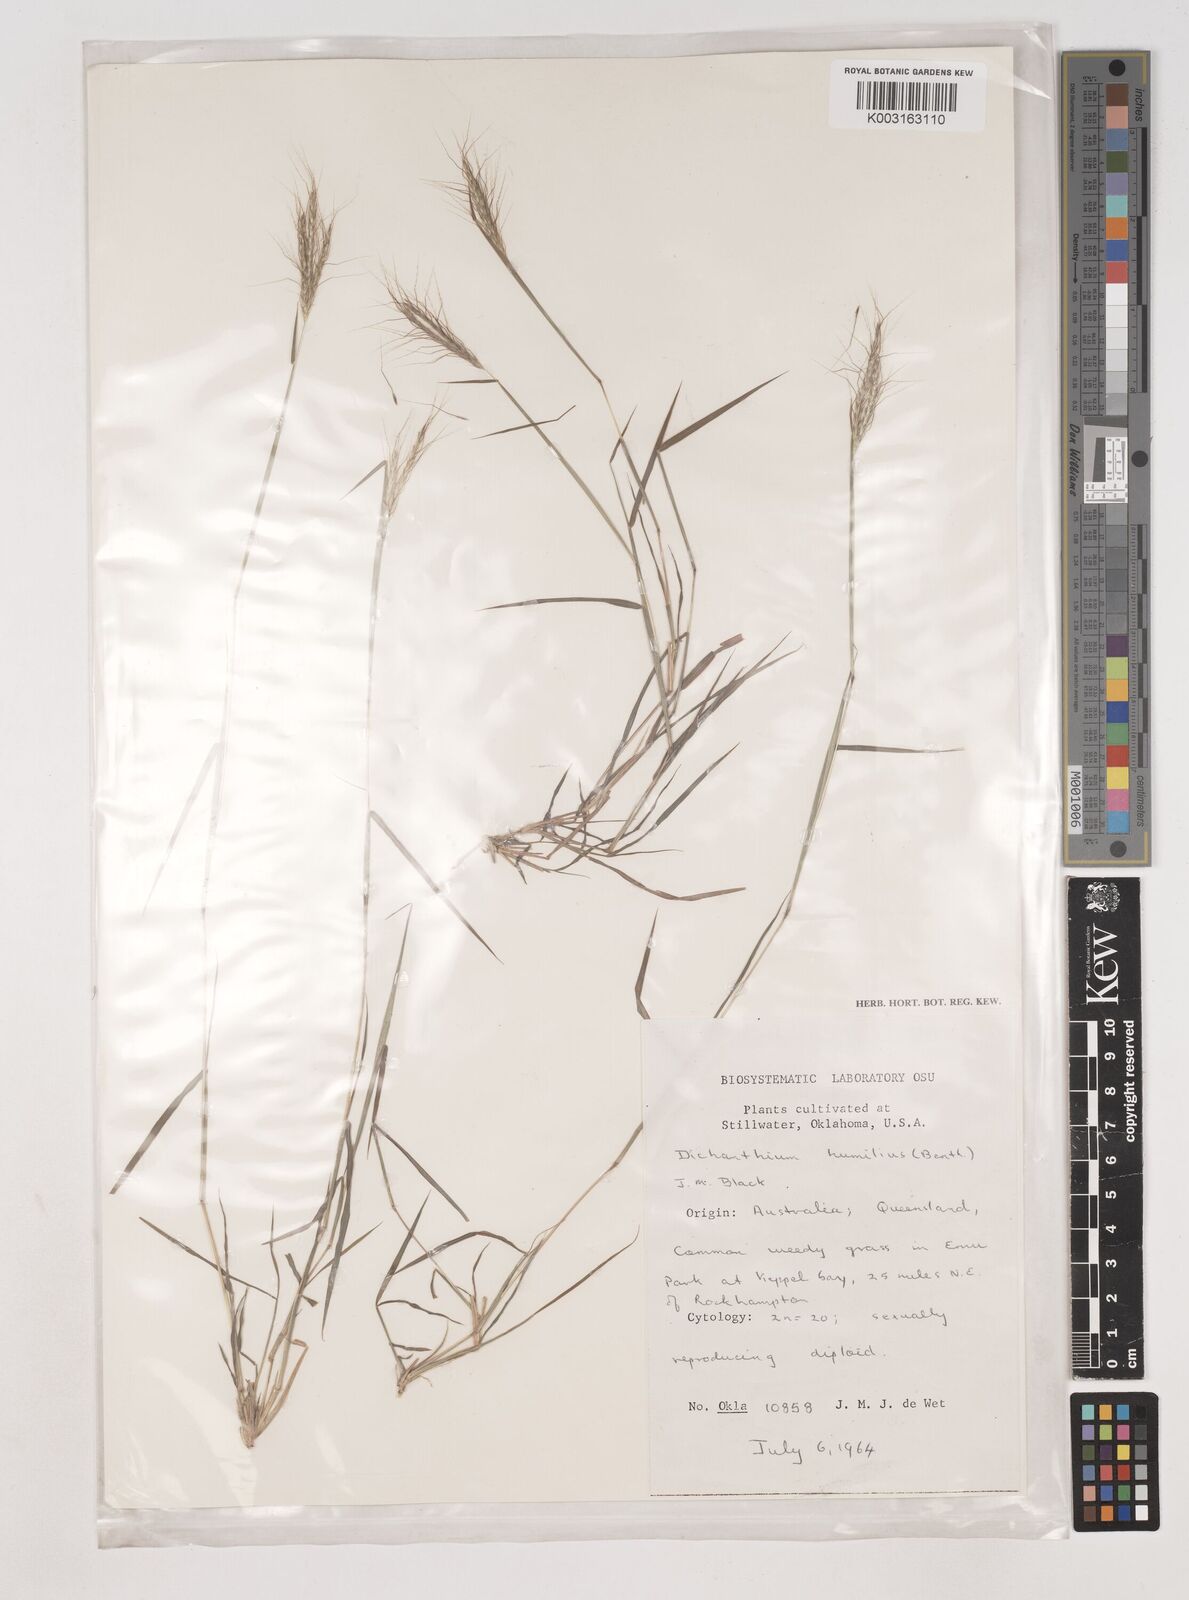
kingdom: Plantae
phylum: Tracheophyta
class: Liliopsida
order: Poales
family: Poaceae
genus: Dichanthium
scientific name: Dichanthium sericeum
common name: Silky bluestem
